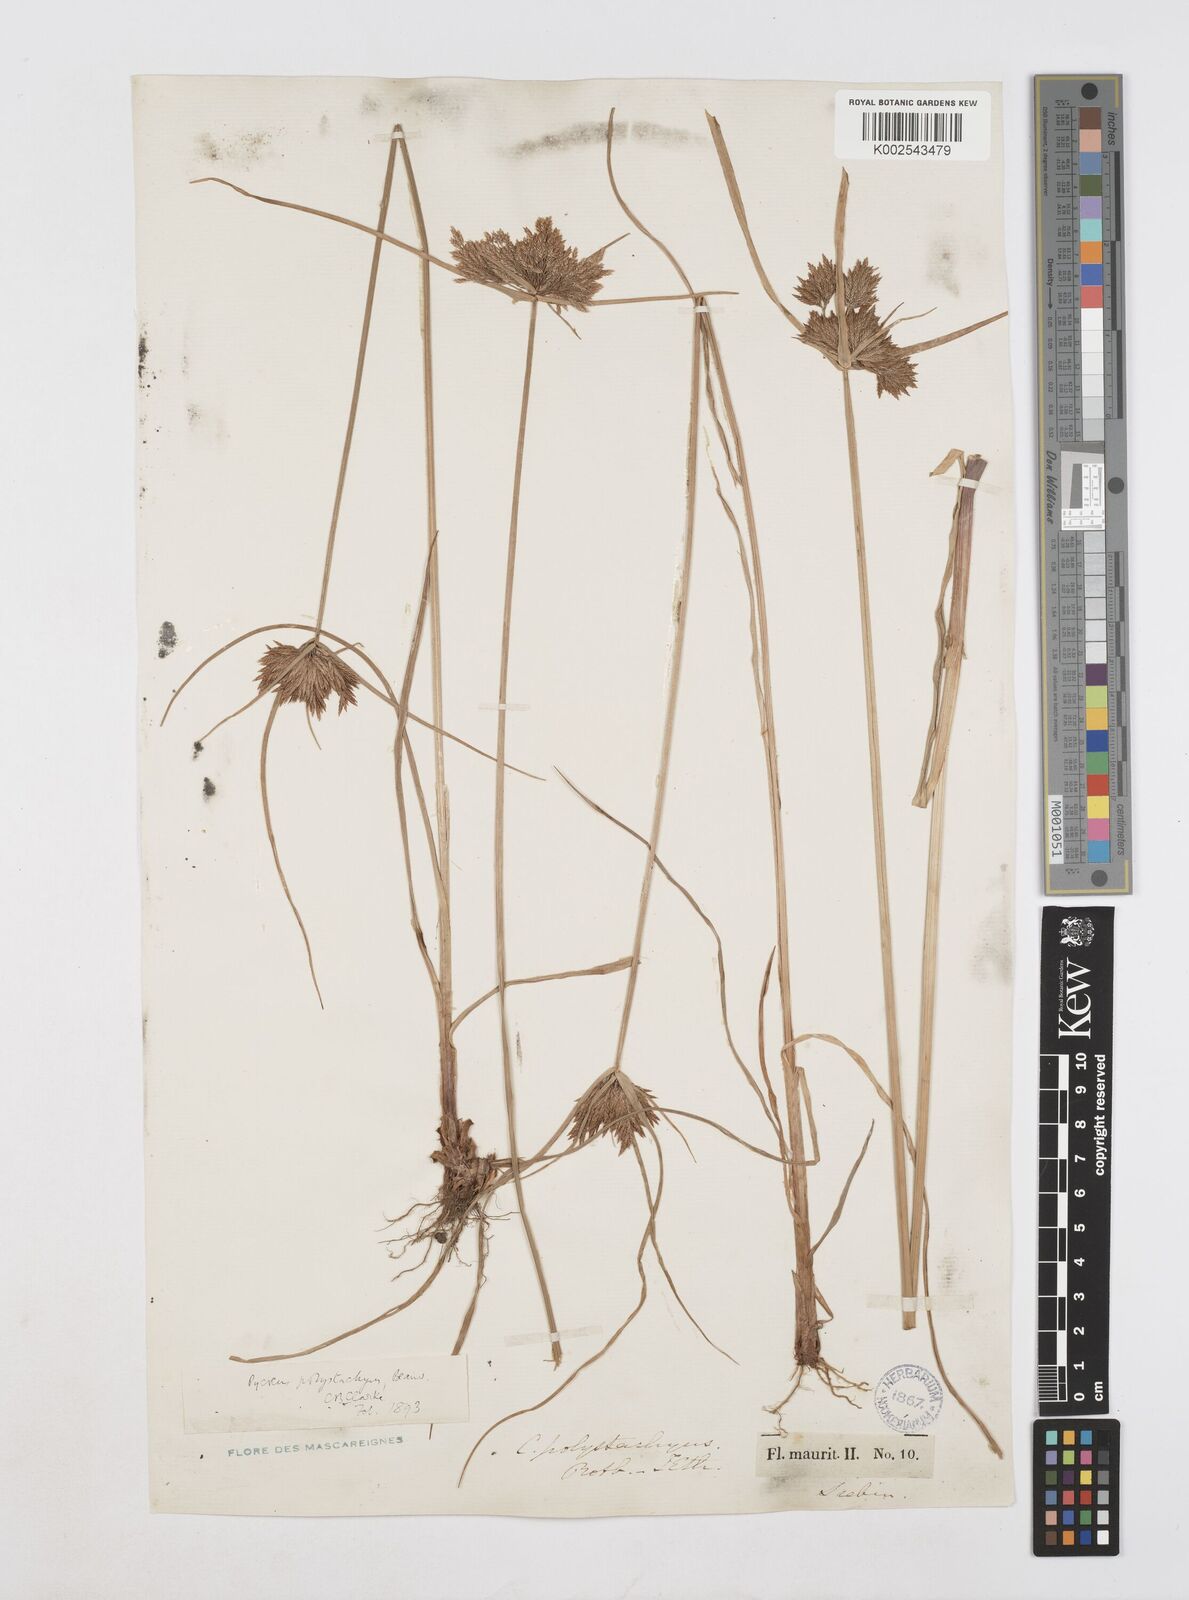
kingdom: Plantae
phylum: Tracheophyta
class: Liliopsida
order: Poales
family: Cyperaceae
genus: Cyperus
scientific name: Cyperus polystachyos
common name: Bunchy flat sedge
